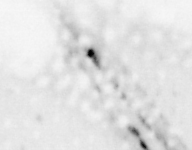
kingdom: Animalia
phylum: Chordata
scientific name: Chordata
